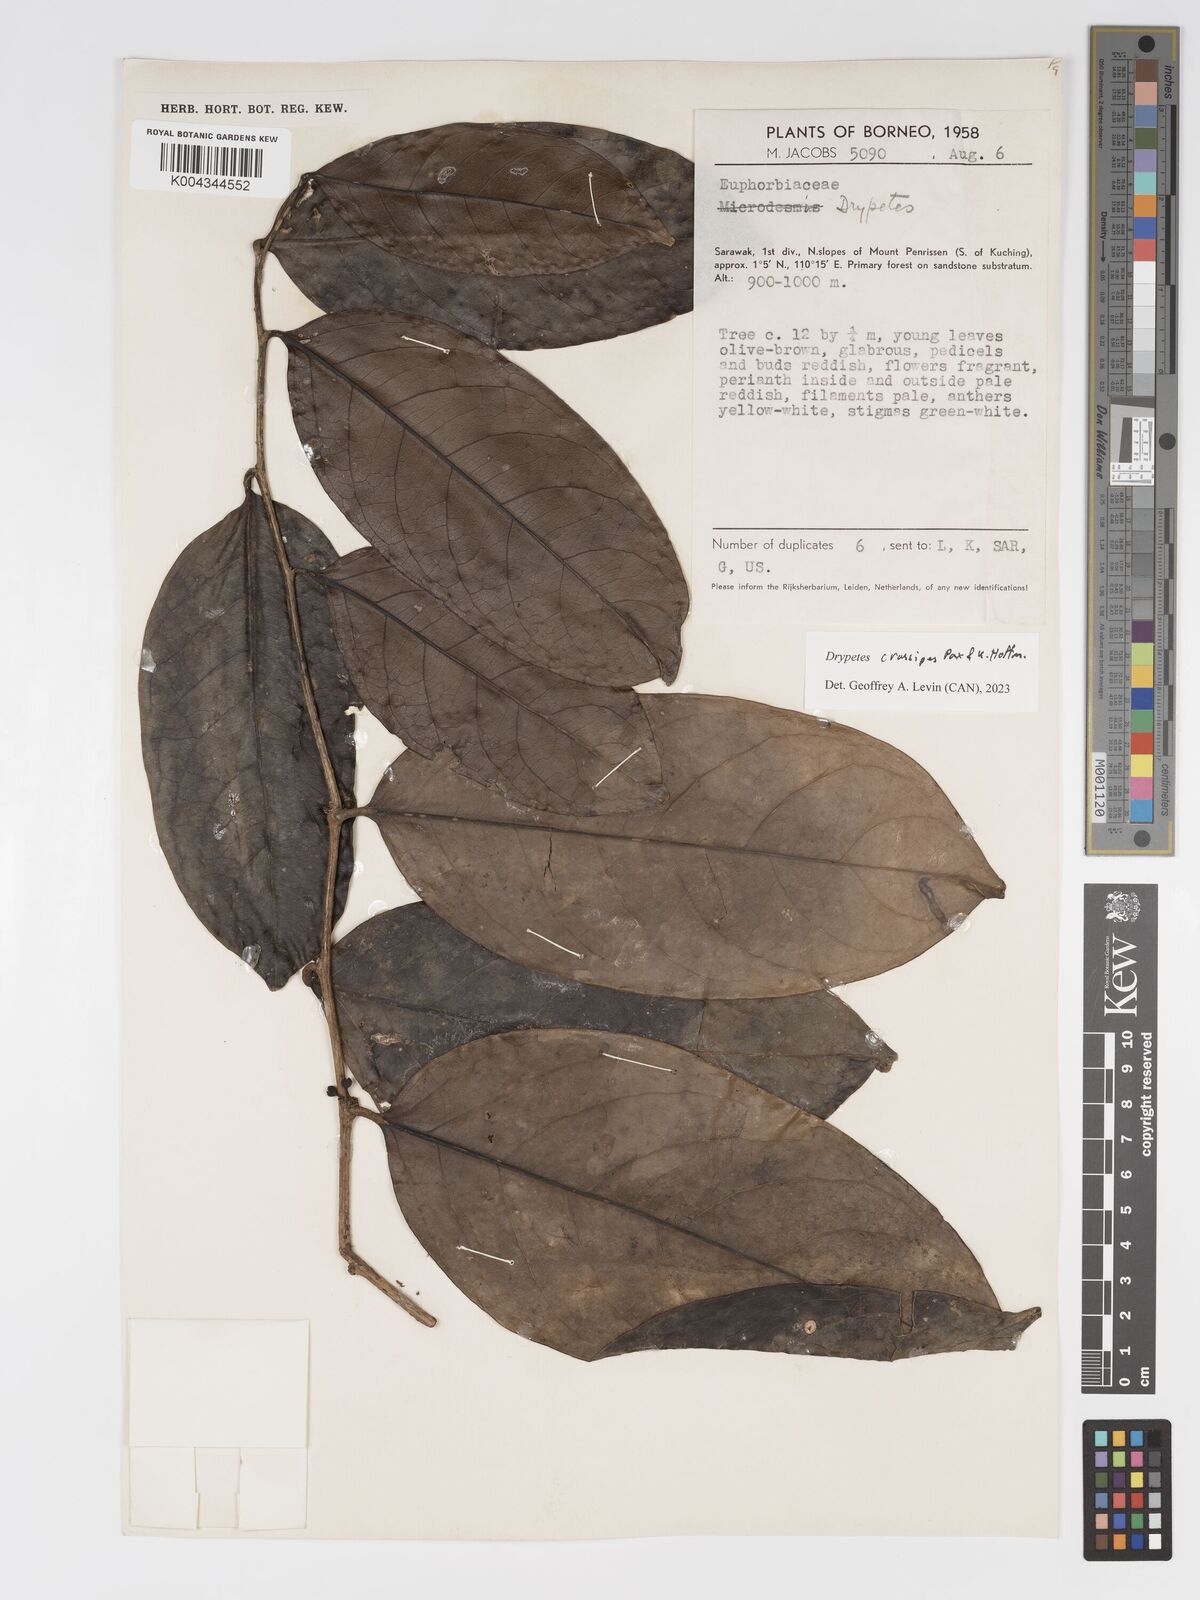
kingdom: Plantae
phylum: Tracheophyta
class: Magnoliopsida
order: Malpighiales
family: Putranjivaceae
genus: Drypetes
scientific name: Drypetes crassipes
